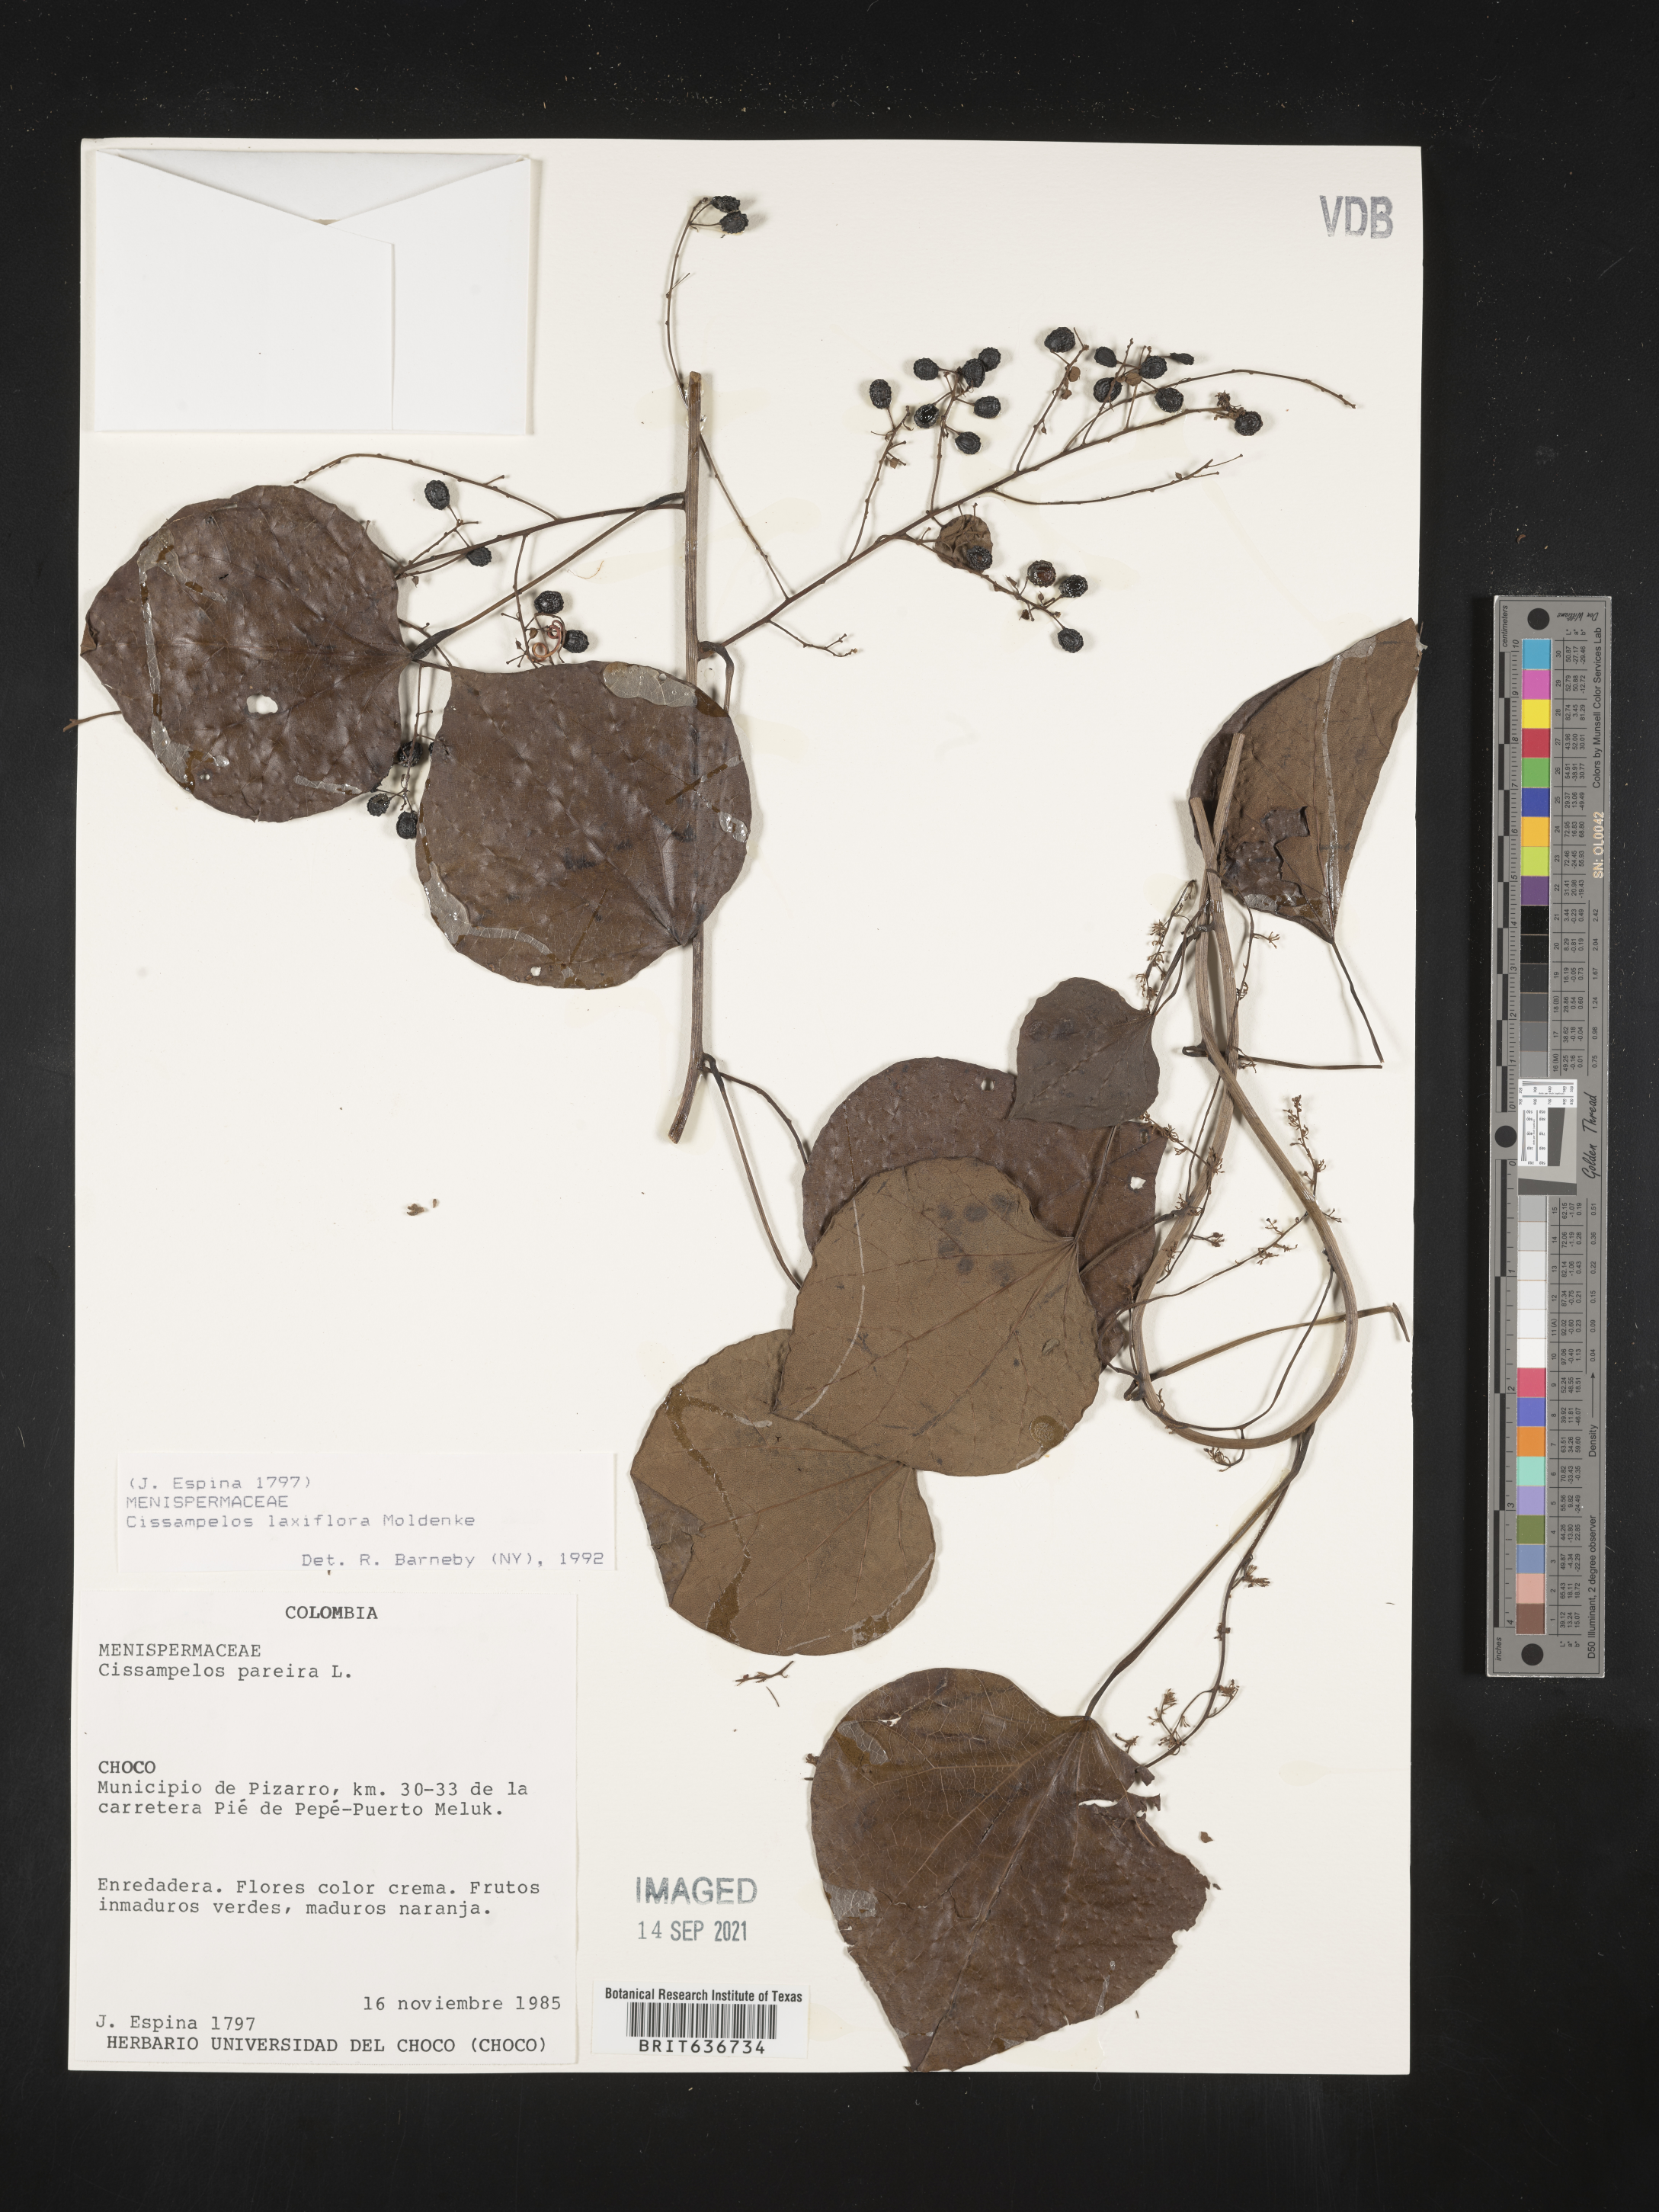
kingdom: Plantae
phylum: Tracheophyta
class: Magnoliopsida
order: Ranunculales
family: Menispermaceae
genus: Cissampelos
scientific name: Cissampelos
